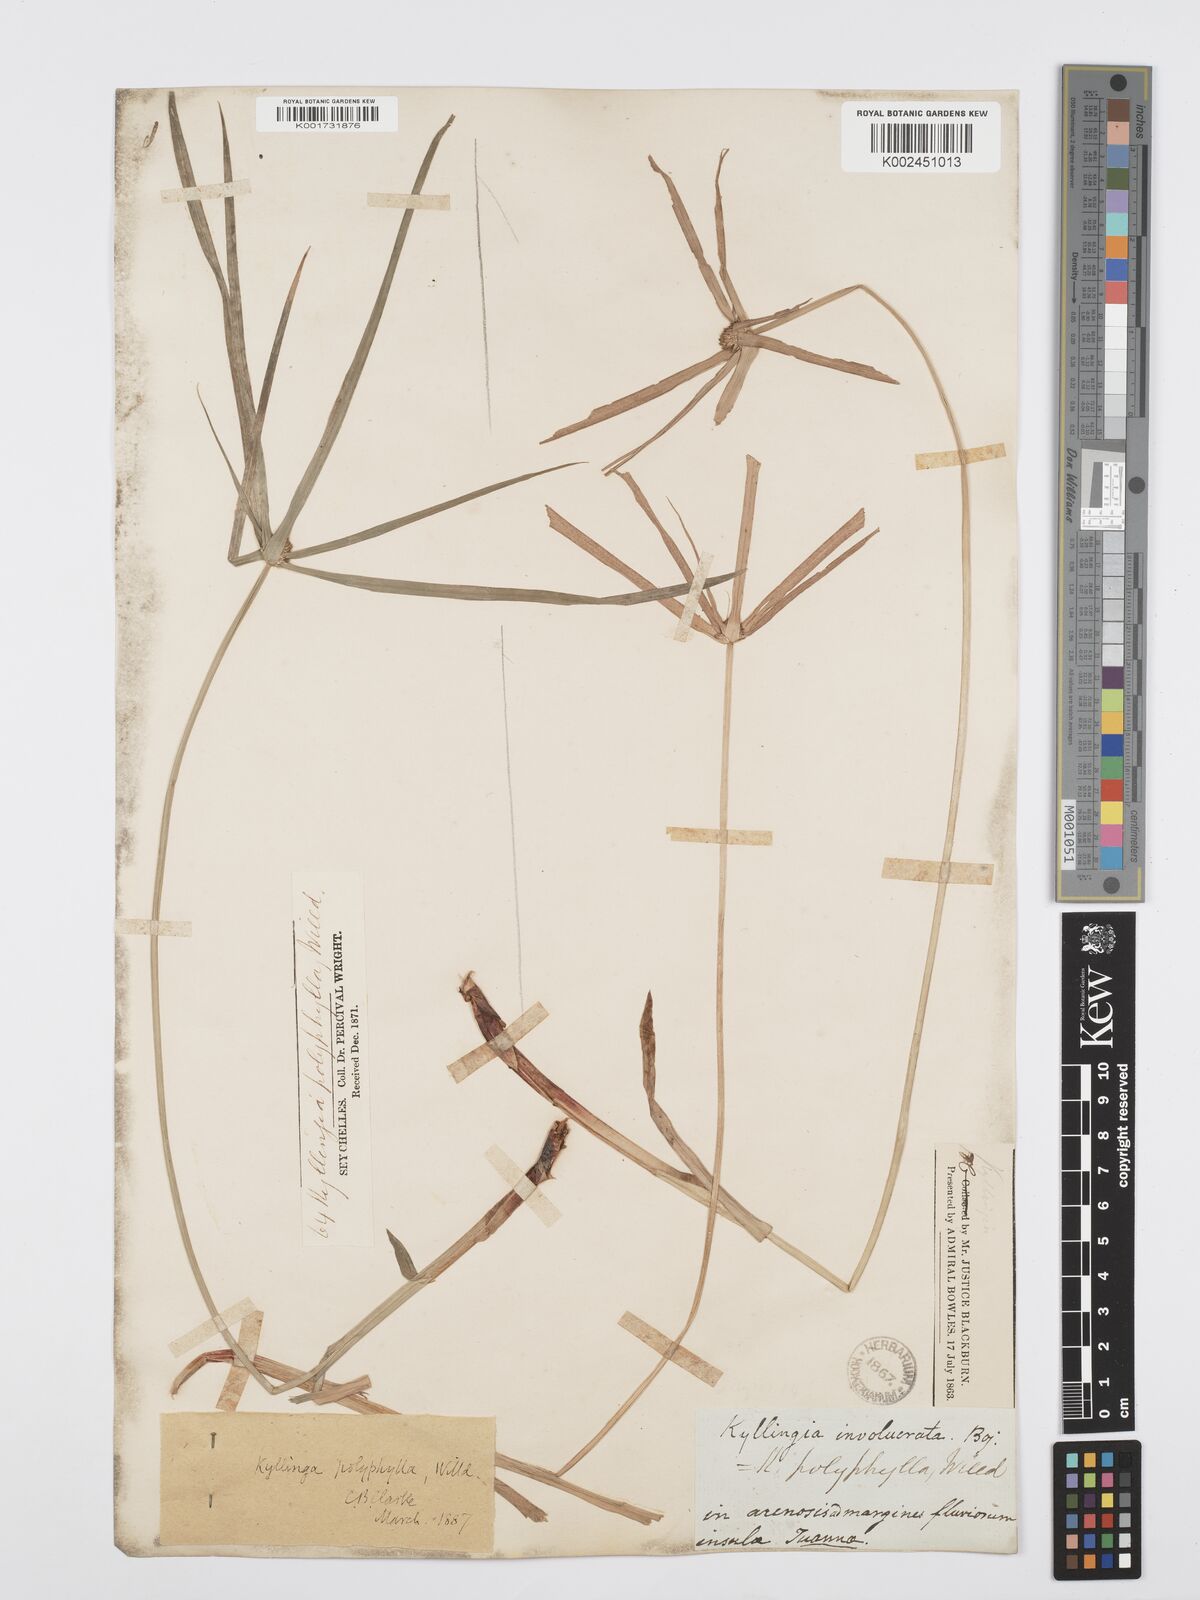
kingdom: Plantae
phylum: Tracheophyta
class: Liliopsida
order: Poales
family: Cyperaceae
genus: Cyperus
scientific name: Cyperus bulbosus
